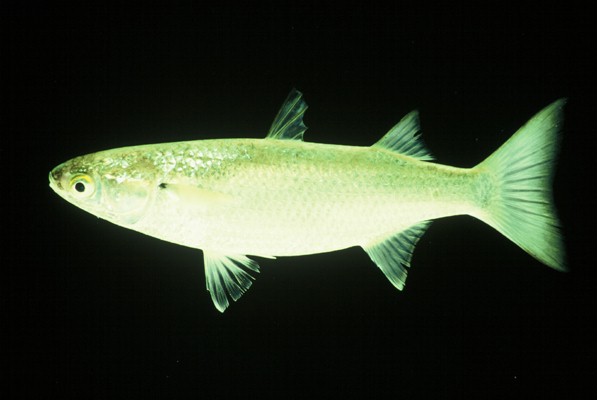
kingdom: Animalia
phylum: Chordata
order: Mugiliformes
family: Mugilidae
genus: Osteomugil
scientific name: Osteomugil robustus
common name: Robust mullet
